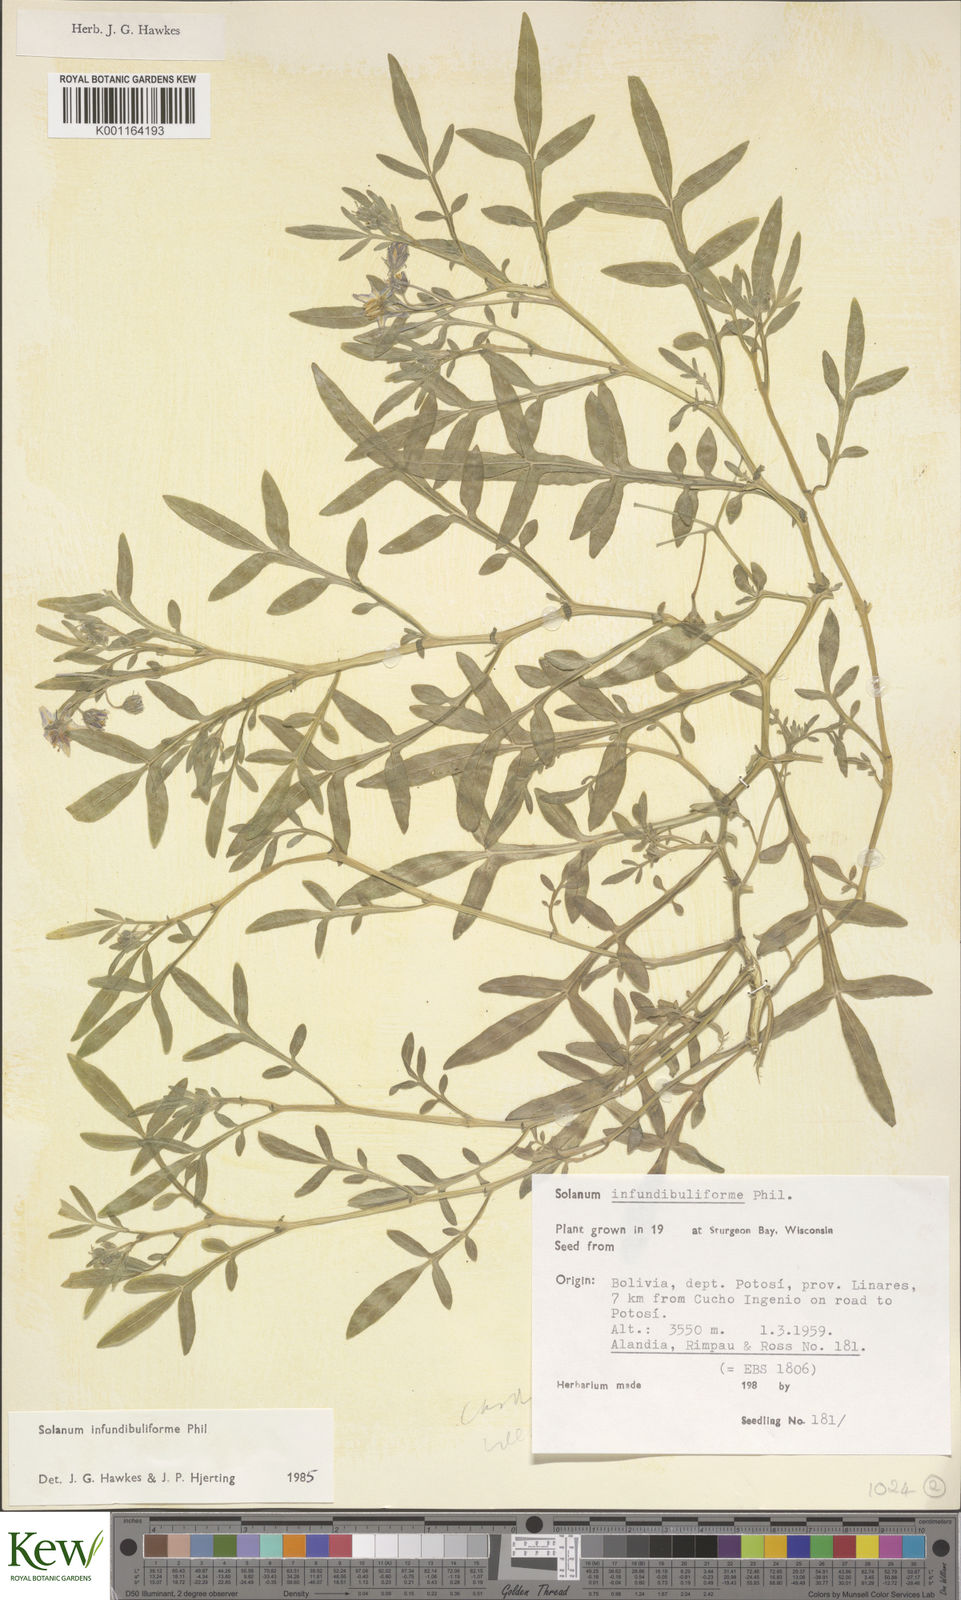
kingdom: Plantae
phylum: Tracheophyta
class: Magnoliopsida
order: Solanales
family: Solanaceae
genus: Solanum
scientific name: Solanum infundibuliforme
